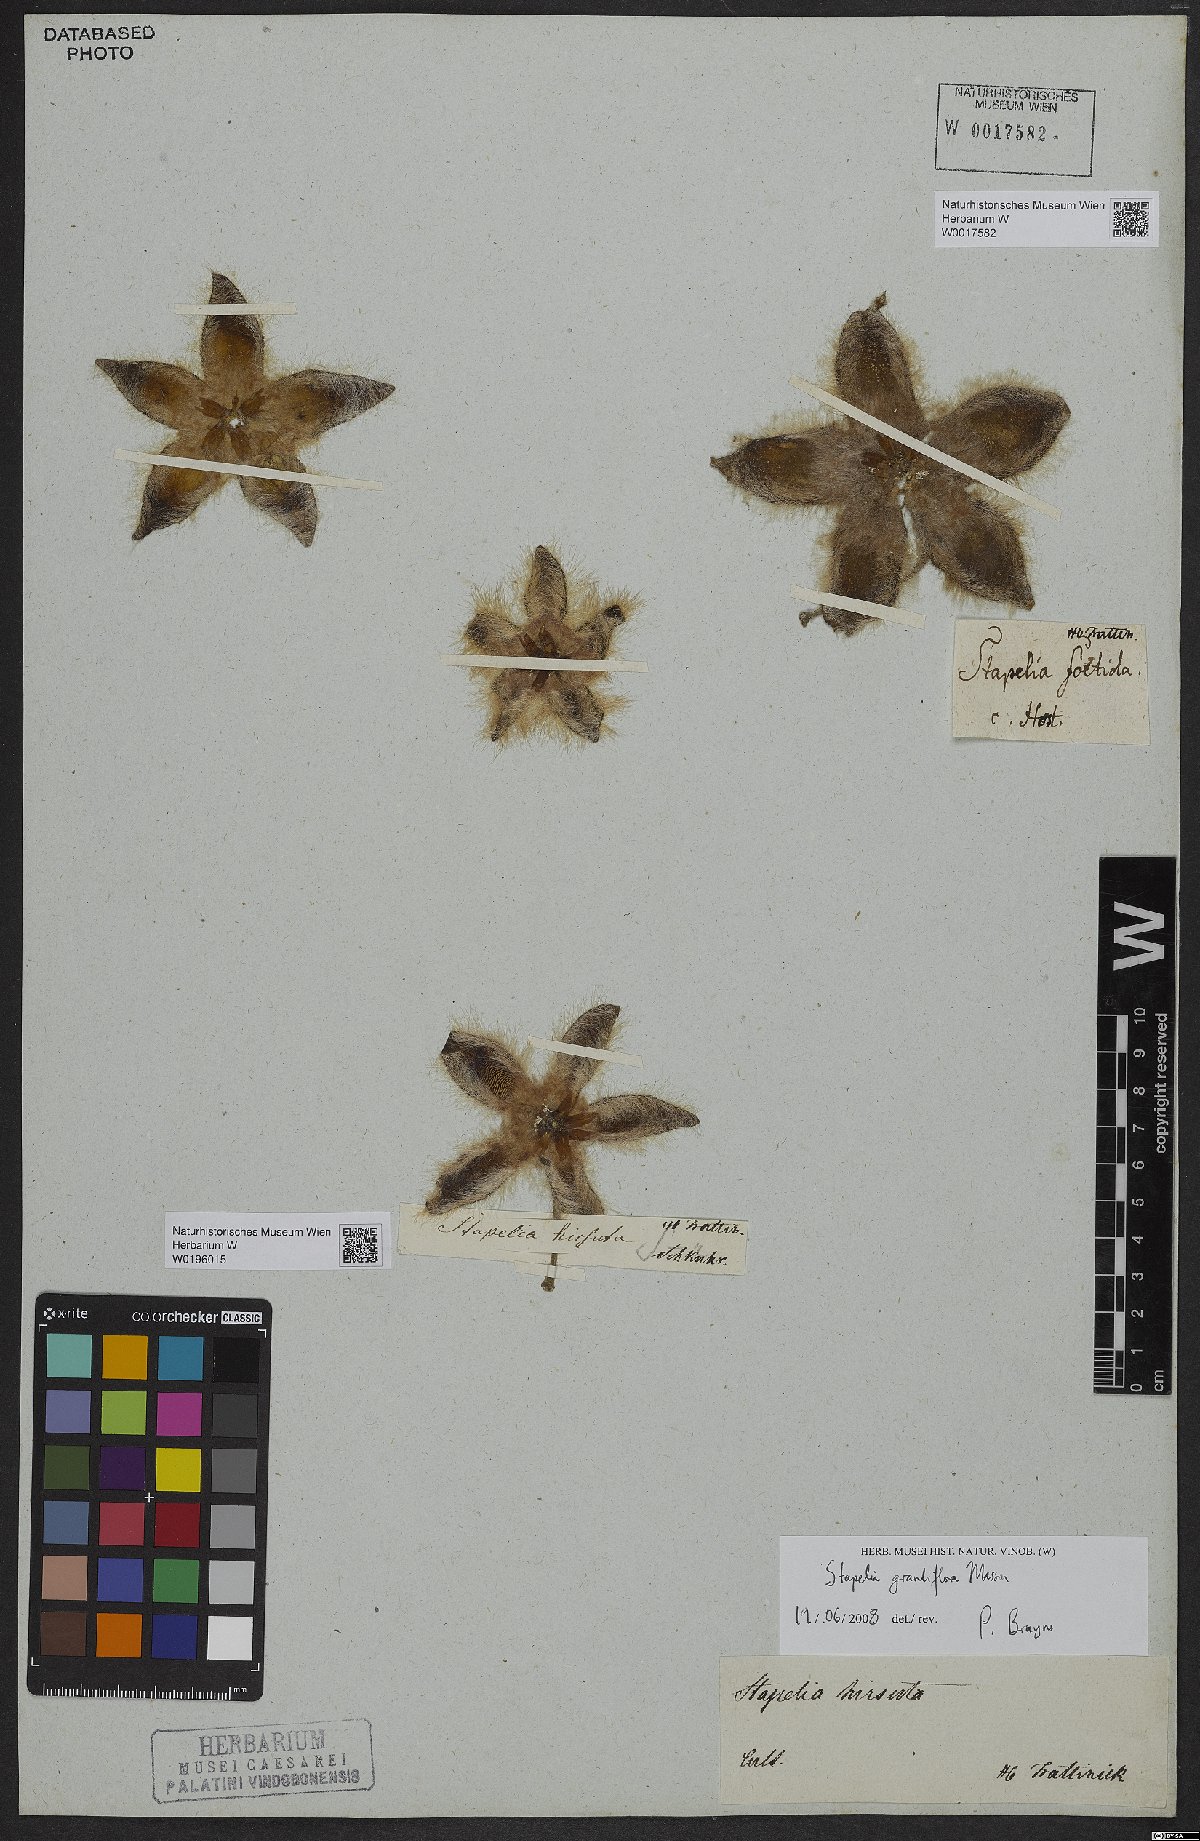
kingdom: Plantae
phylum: Tracheophyta
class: Magnoliopsida
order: Gentianales
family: Apocynaceae
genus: Ceropegia
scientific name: Ceropegia grandiflora
